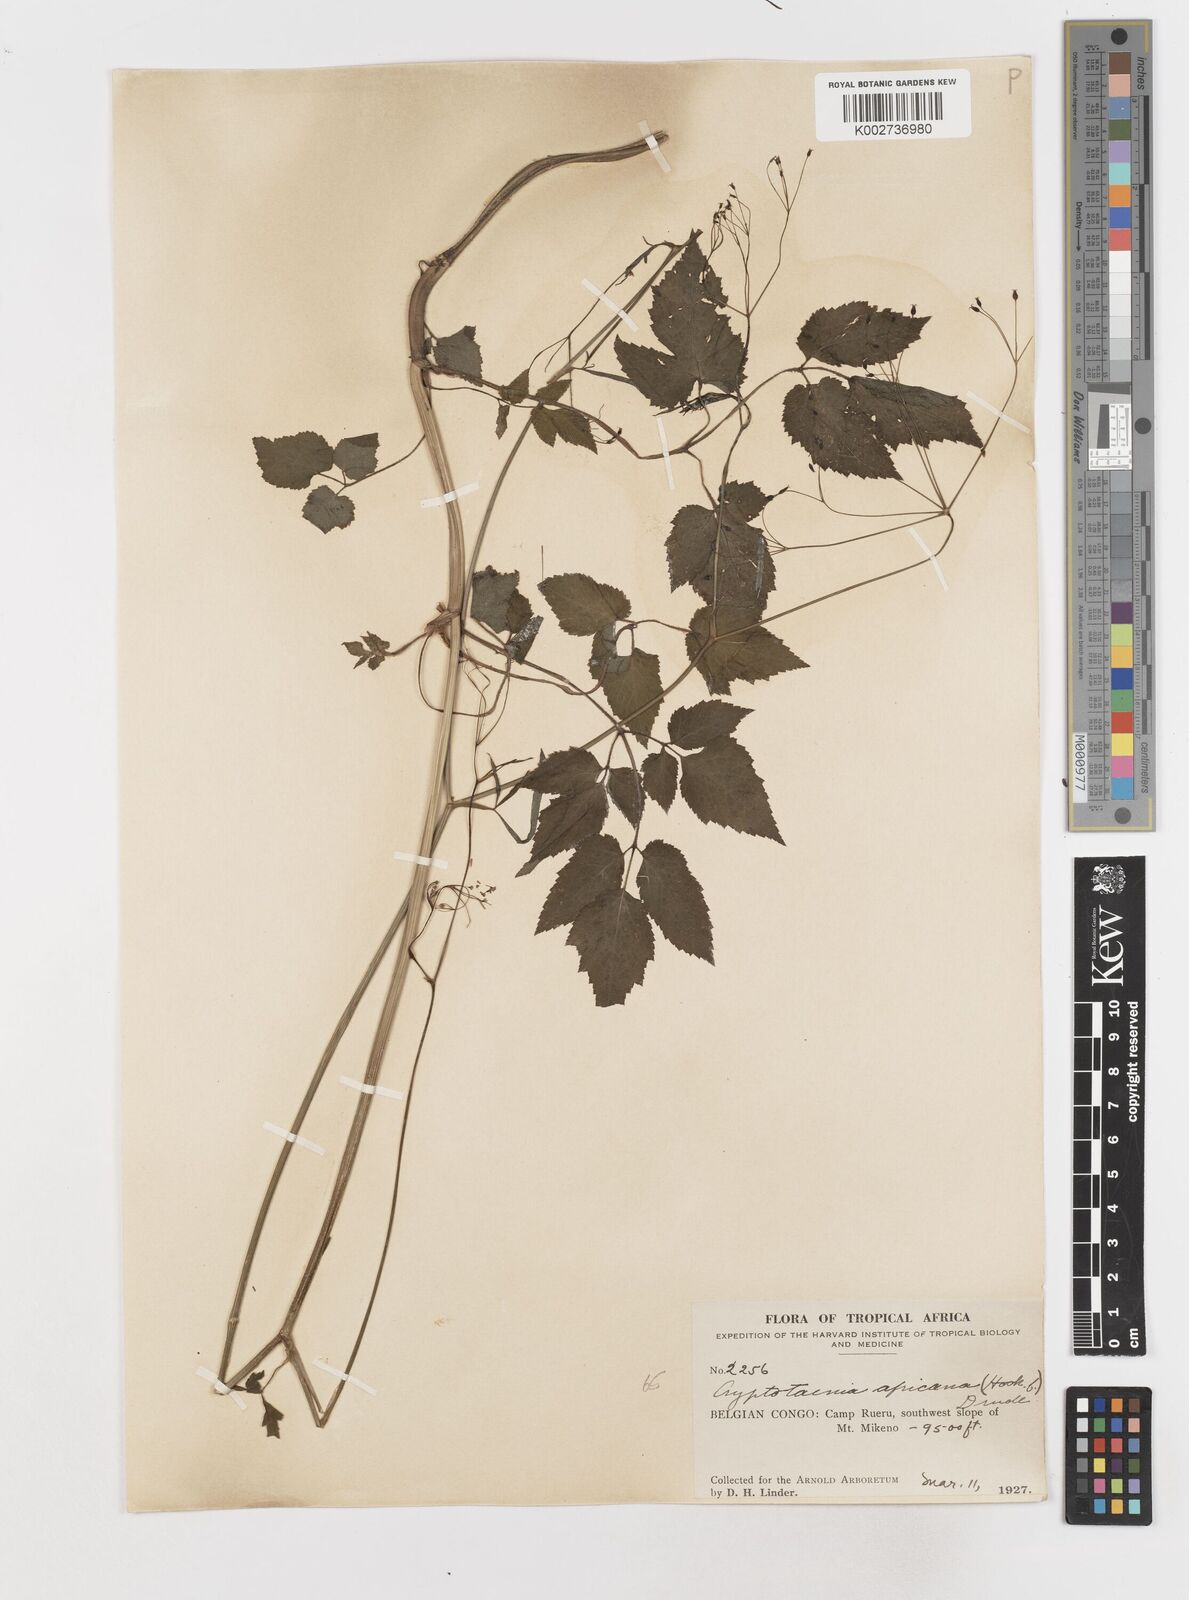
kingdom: Plantae
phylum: Tracheophyta
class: Magnoliopsida
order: Apiales
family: Apiaceae
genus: Cryptotaenia
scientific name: Cryptotaenia africana
